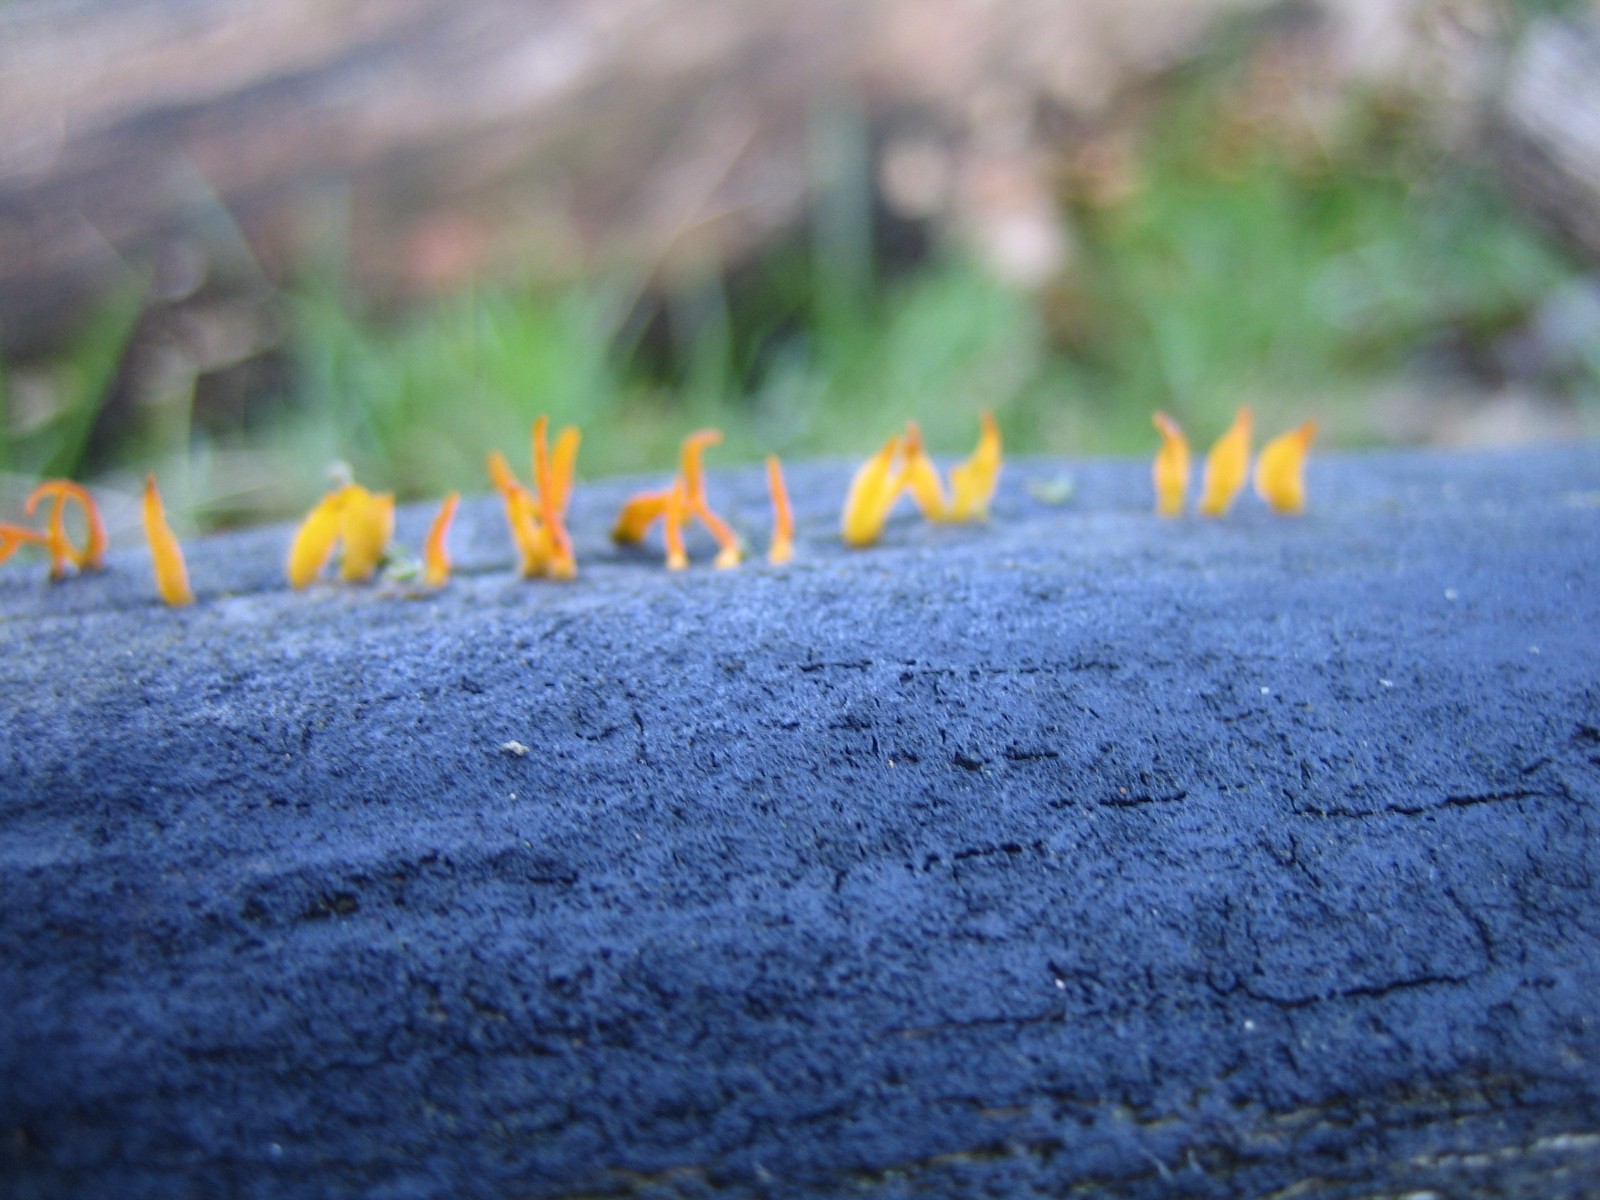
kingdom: Fungi
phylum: Basidiomycota
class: Dacrymycetes
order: Dacrymycetales
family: Dacrymycetaceae
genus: Calocera
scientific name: Calocera cornea
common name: liden guldgaffel
